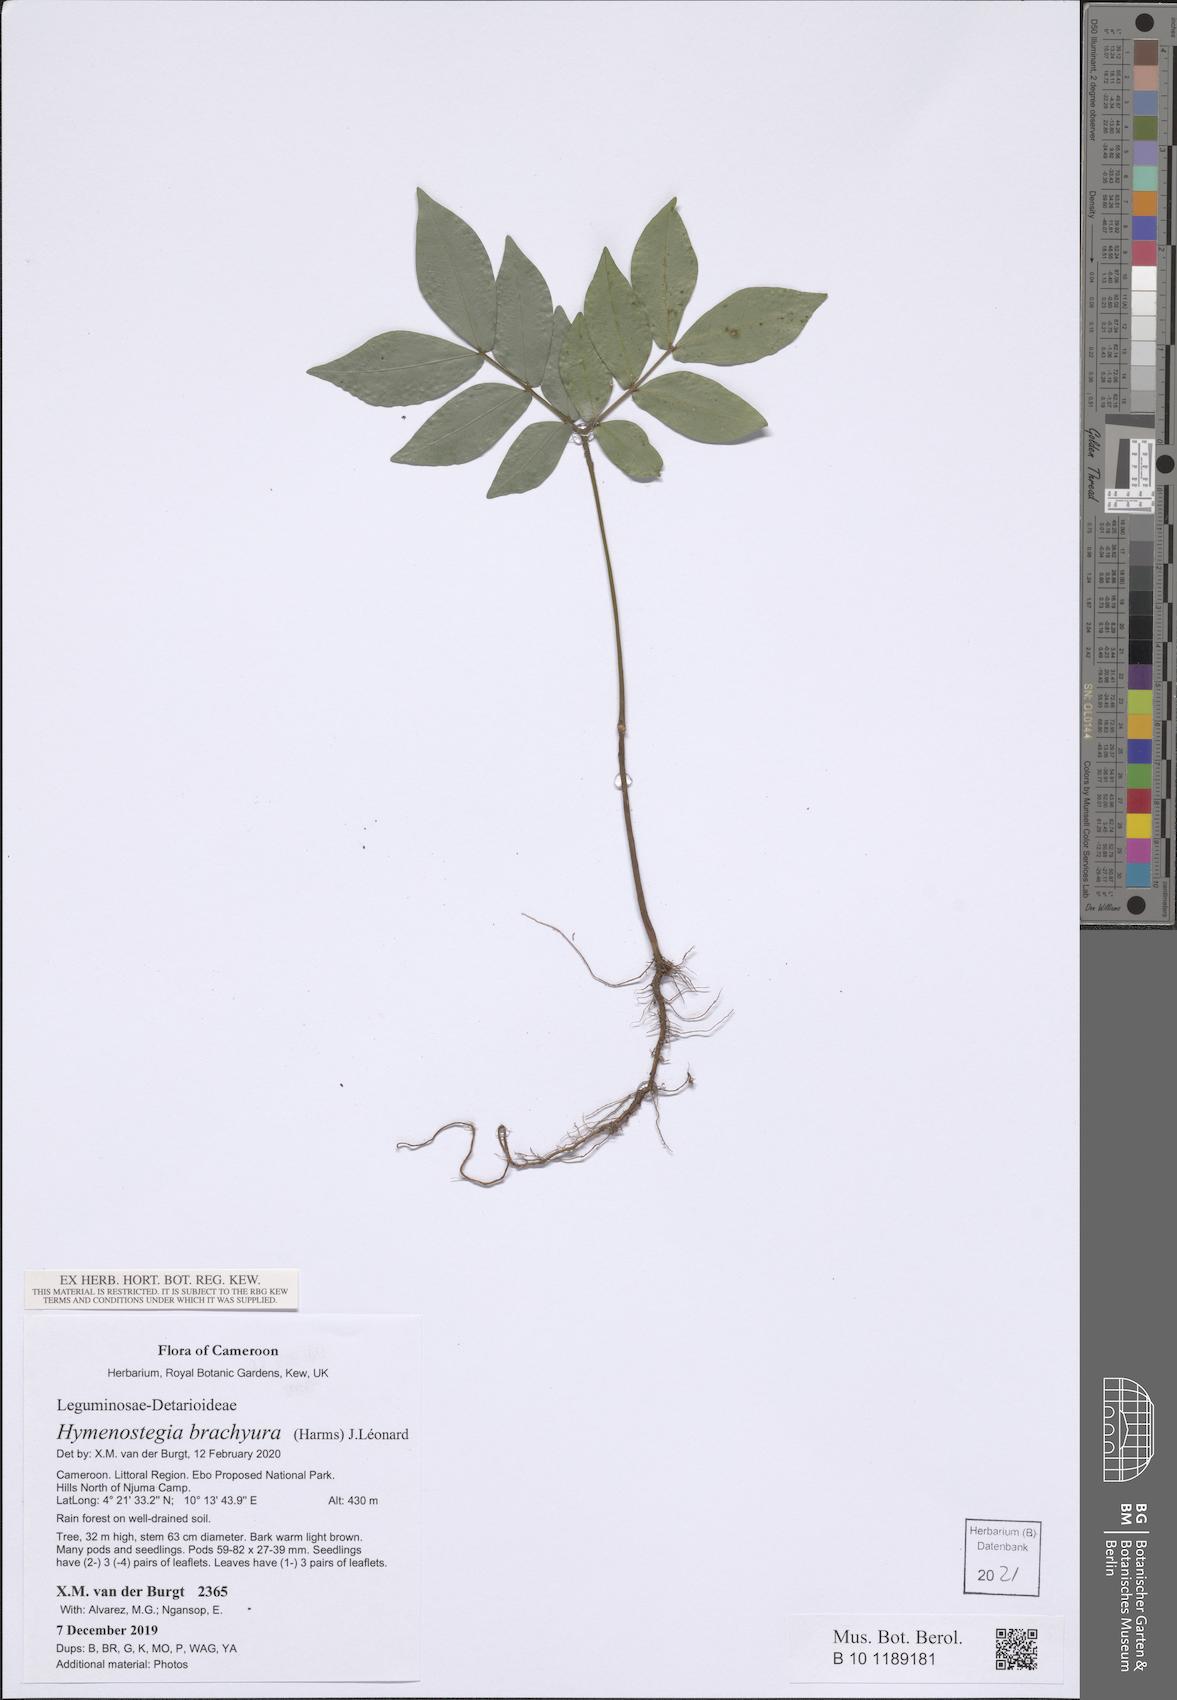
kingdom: Plantae
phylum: Tracheophyta
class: Magnoliopsida
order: Fabales
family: Fabaceae
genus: Hymenostegia
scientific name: Hymenostegia brachyura
